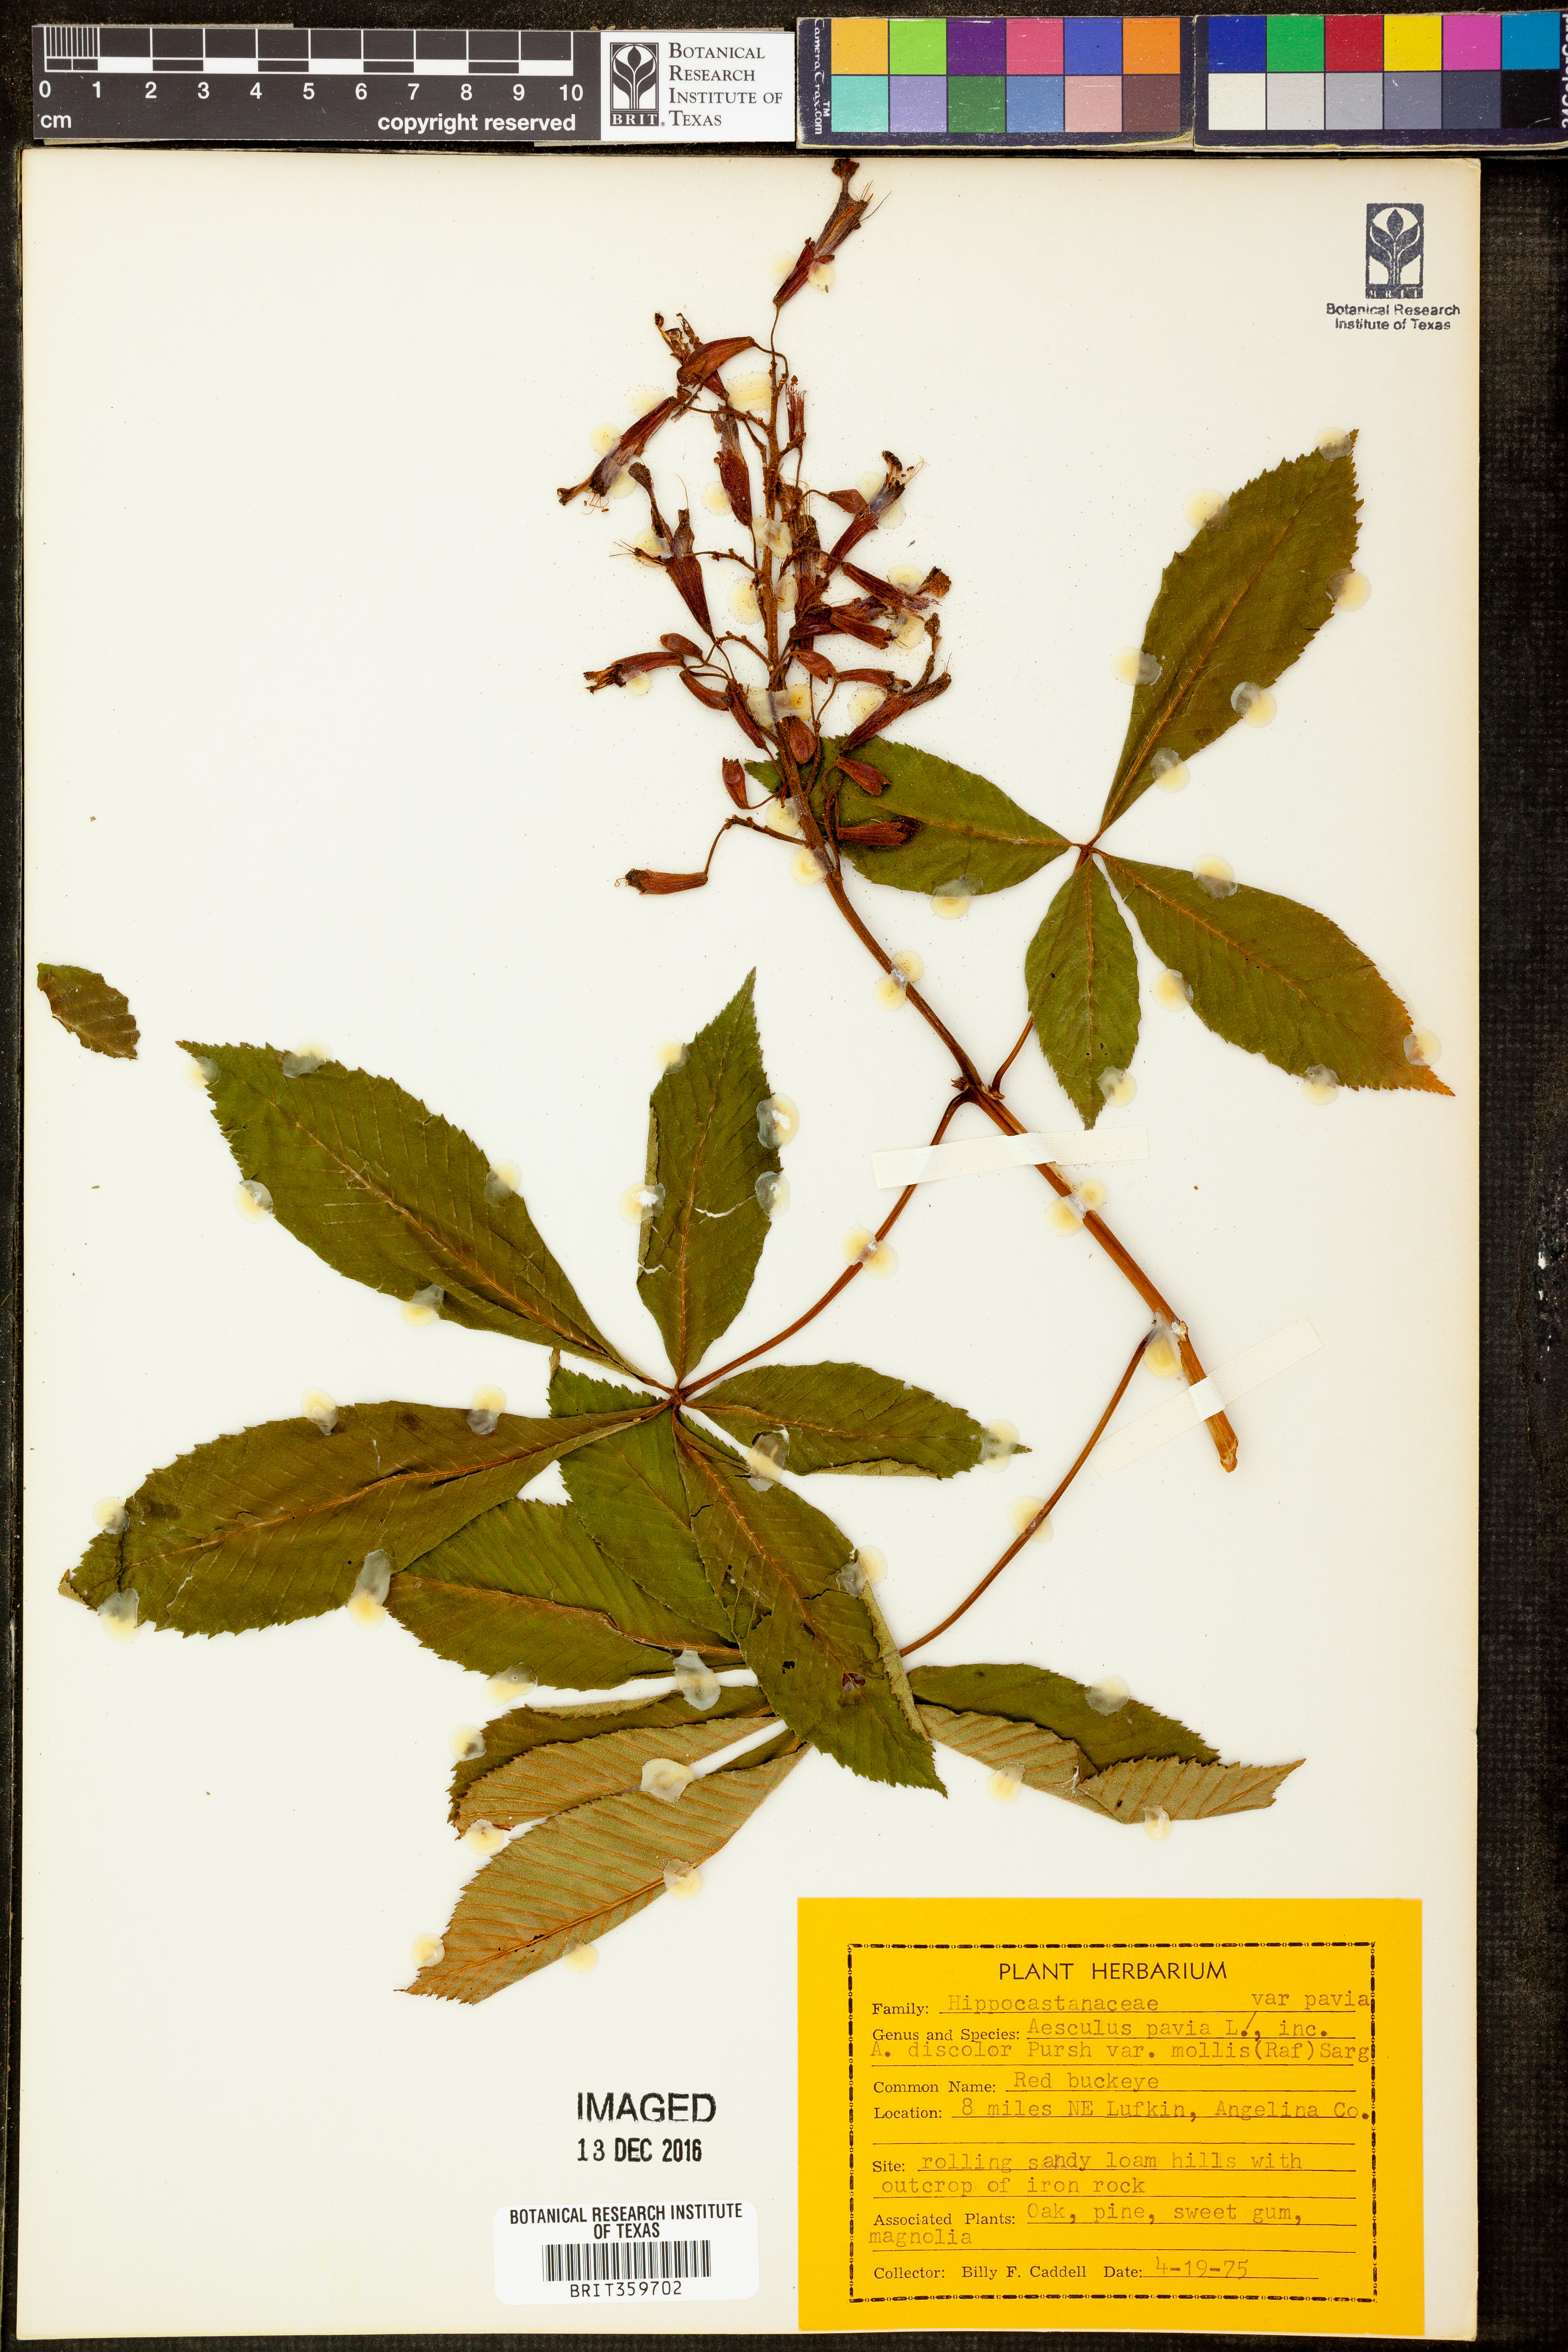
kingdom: Plantae
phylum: Tracheophyta
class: Magnoliopsida
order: Sapindales
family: Sapindaceae
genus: Aesculus
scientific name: Aesculus pavia
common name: Red buckeye
